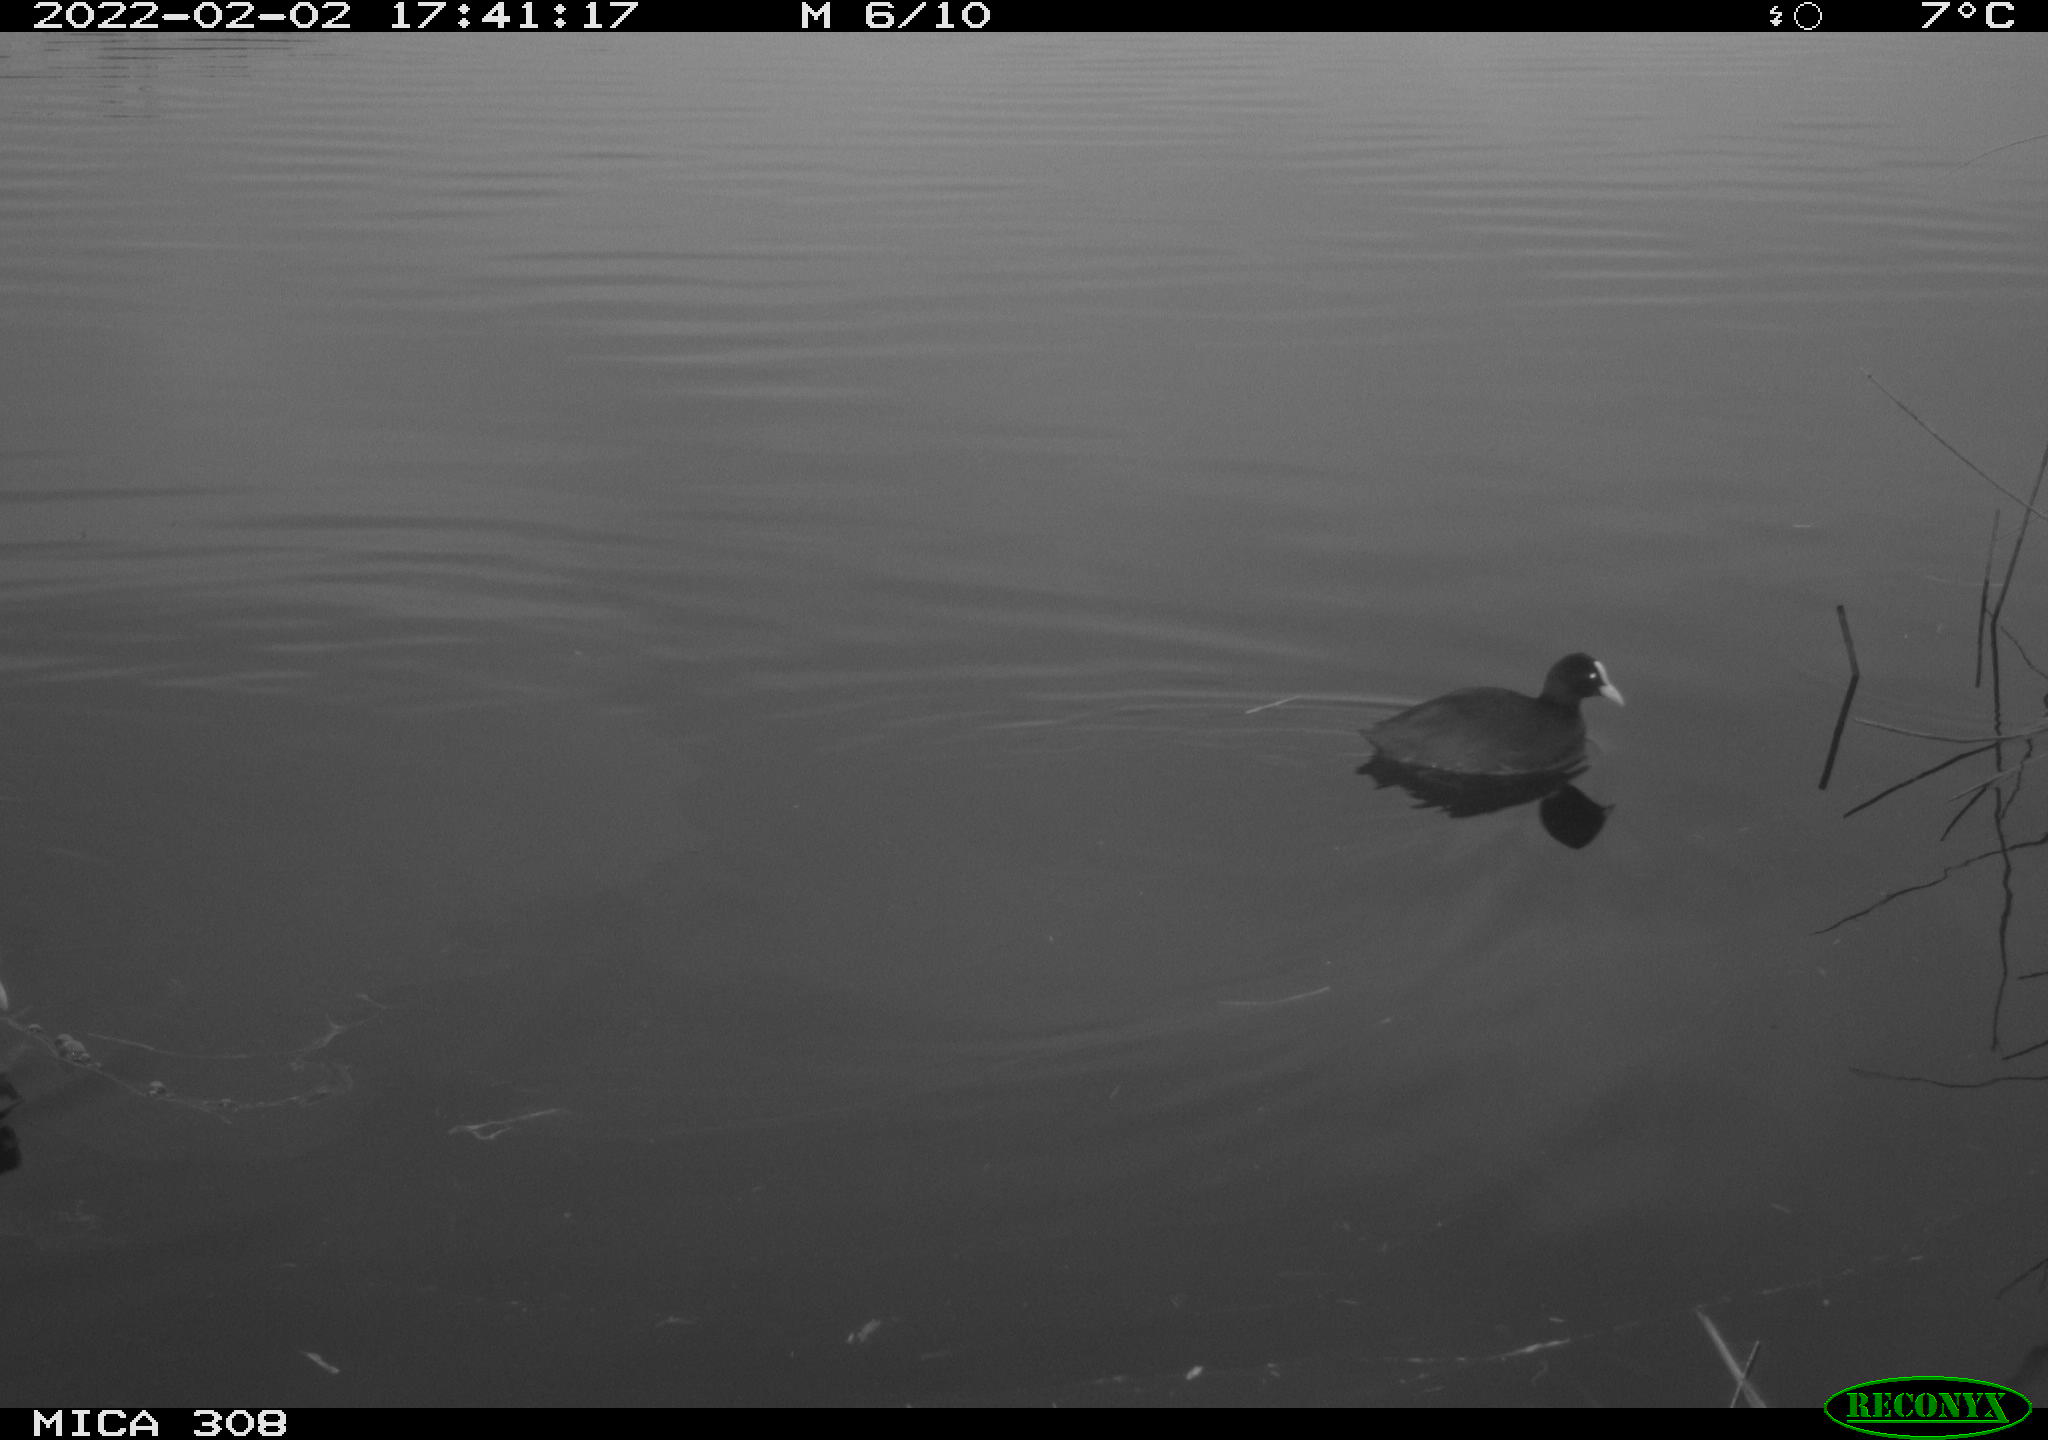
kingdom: Animalia
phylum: Chordata
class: Aves
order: Gruiformes
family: Rallidae
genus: Gallinula
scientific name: Gallinula chloropus
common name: Common moorhen
